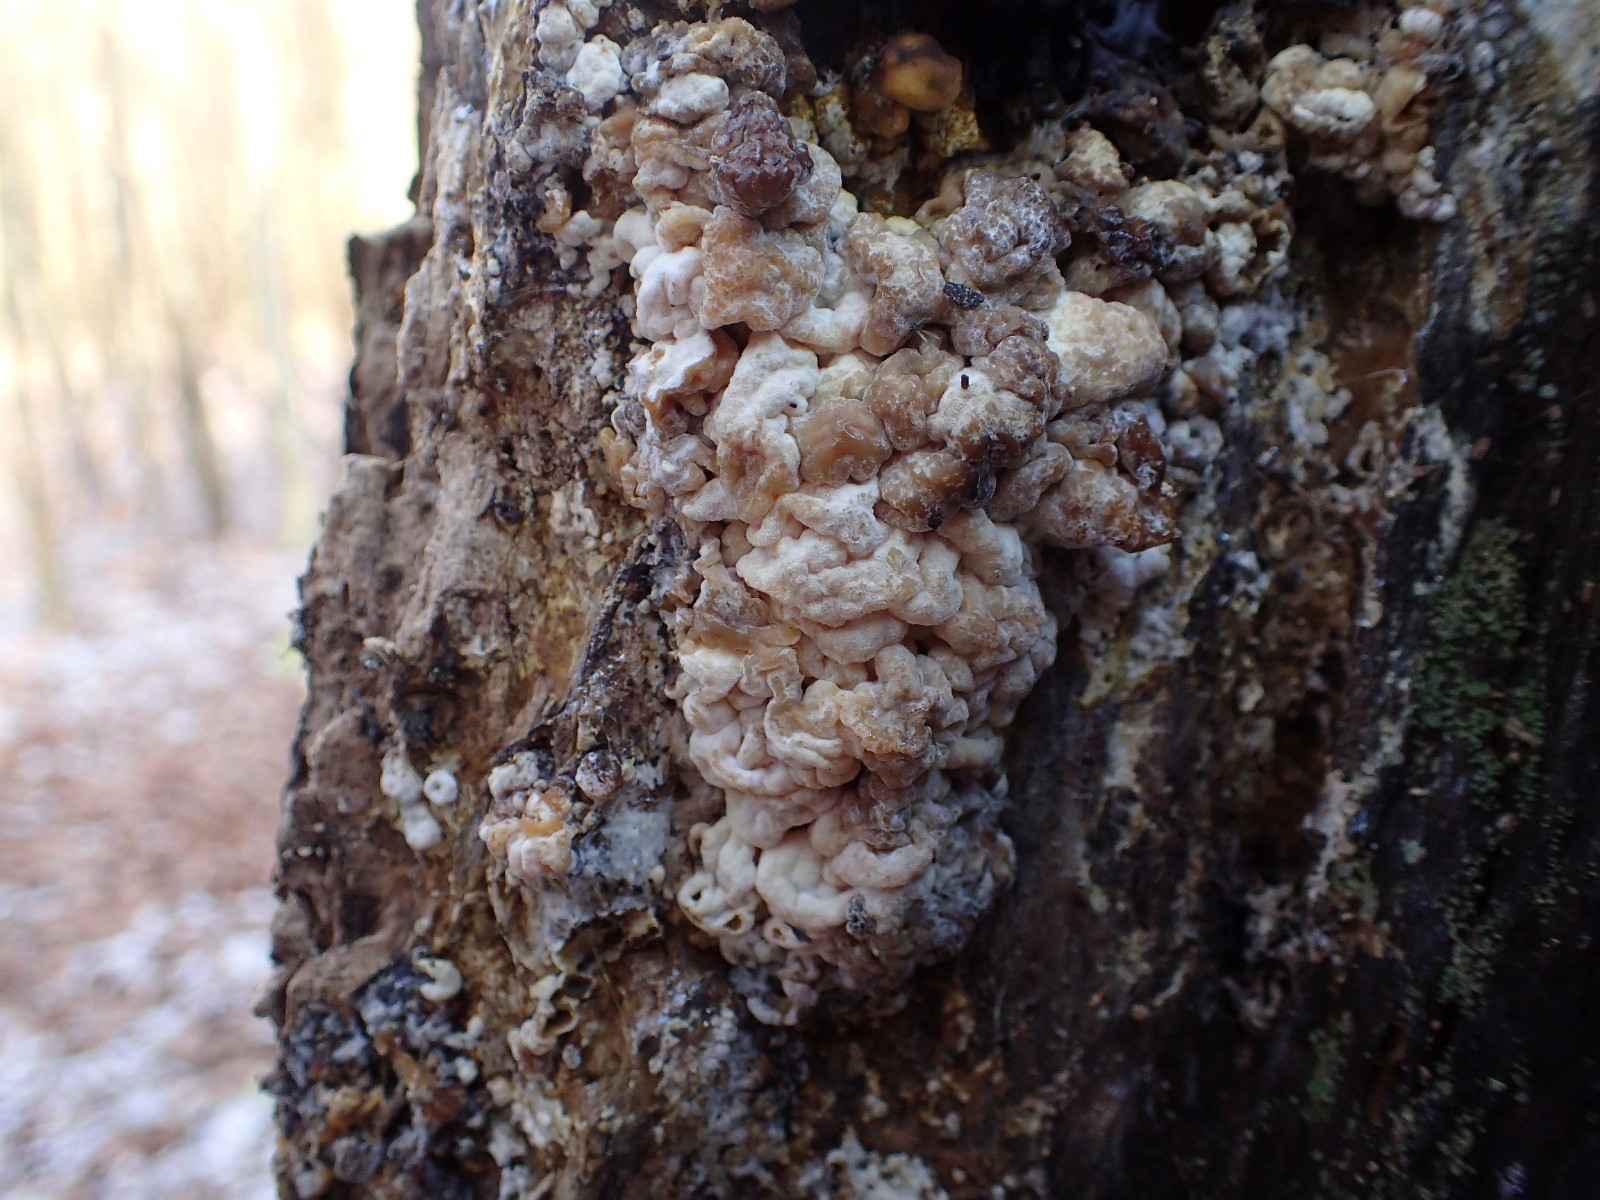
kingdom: Fungi
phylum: Ascomycota
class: Sordariomycetes
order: Xylariales
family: Hypoxylaceae
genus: Nodulisporium
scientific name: Nodulisporium cecidiogenes
